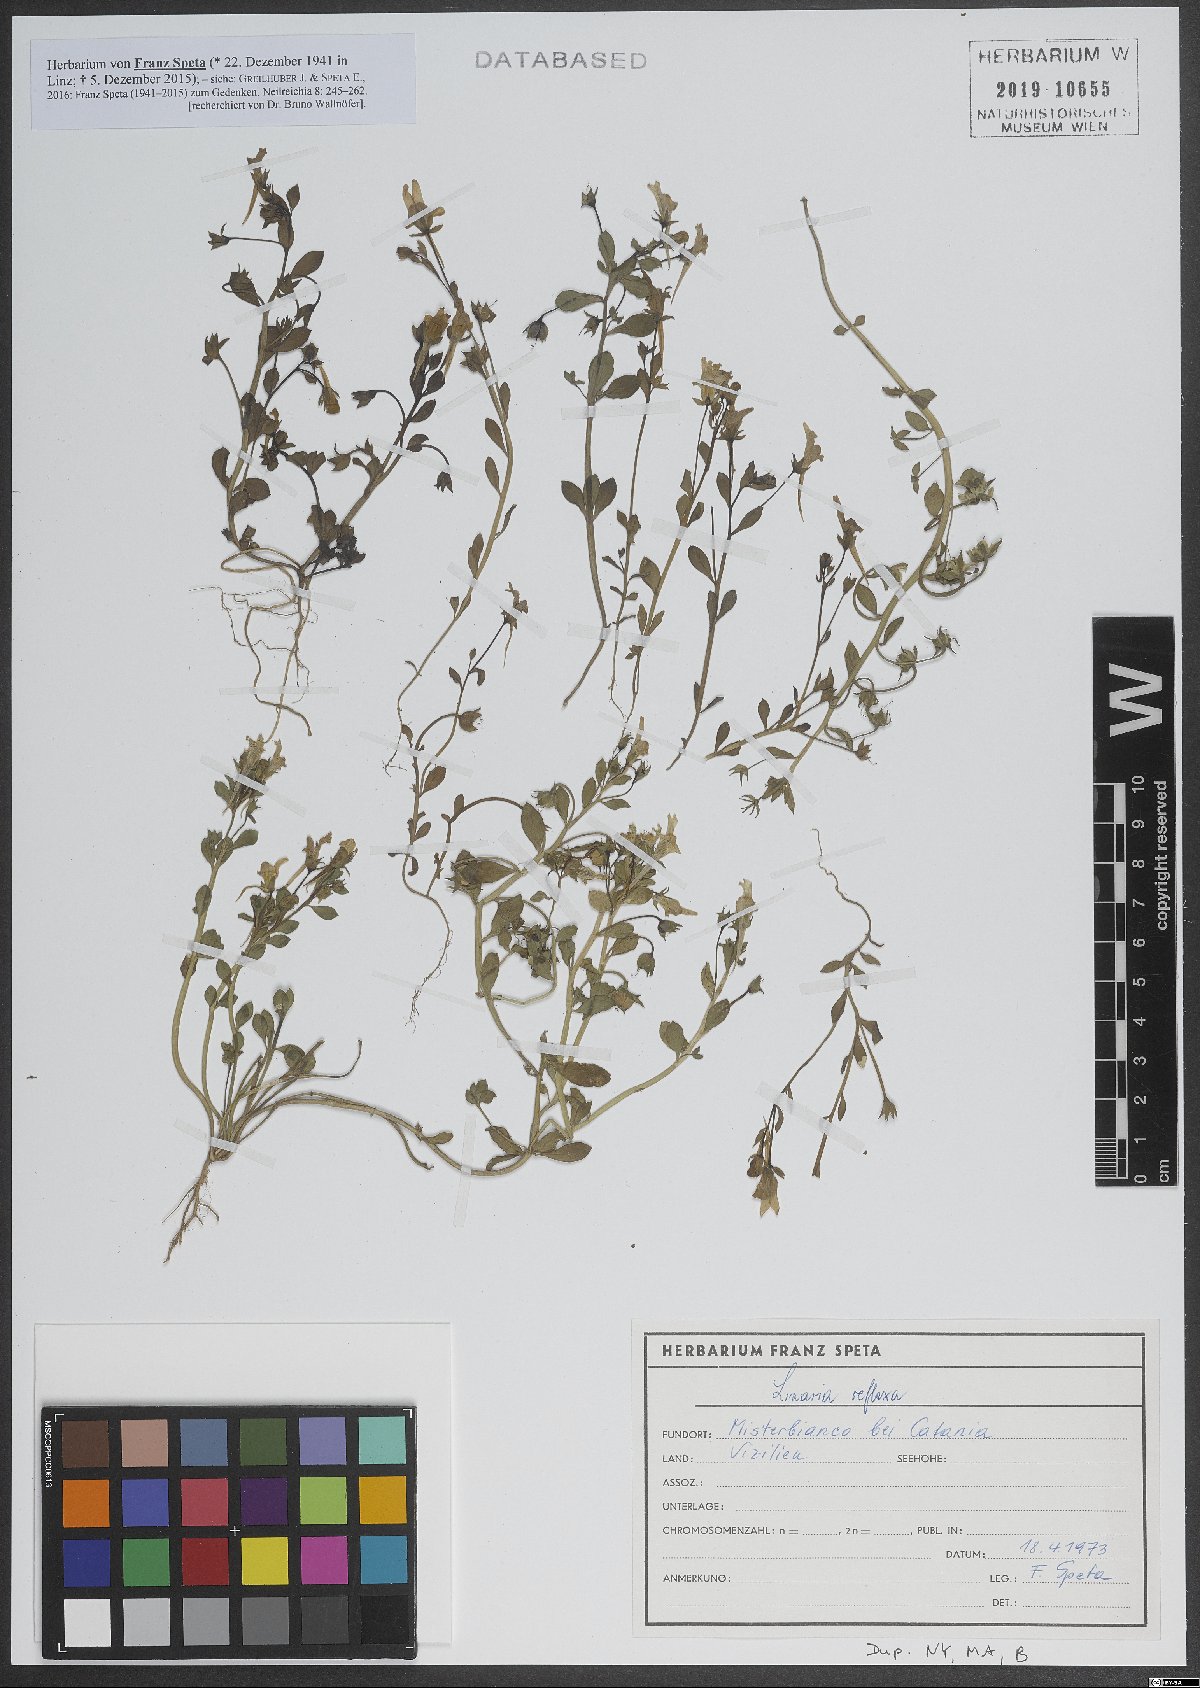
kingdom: Plantae
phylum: Tracheophyta
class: Magnoliopsida
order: Lamiales
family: Plantaginaceae
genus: Linaria
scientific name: Linaria reflexa
